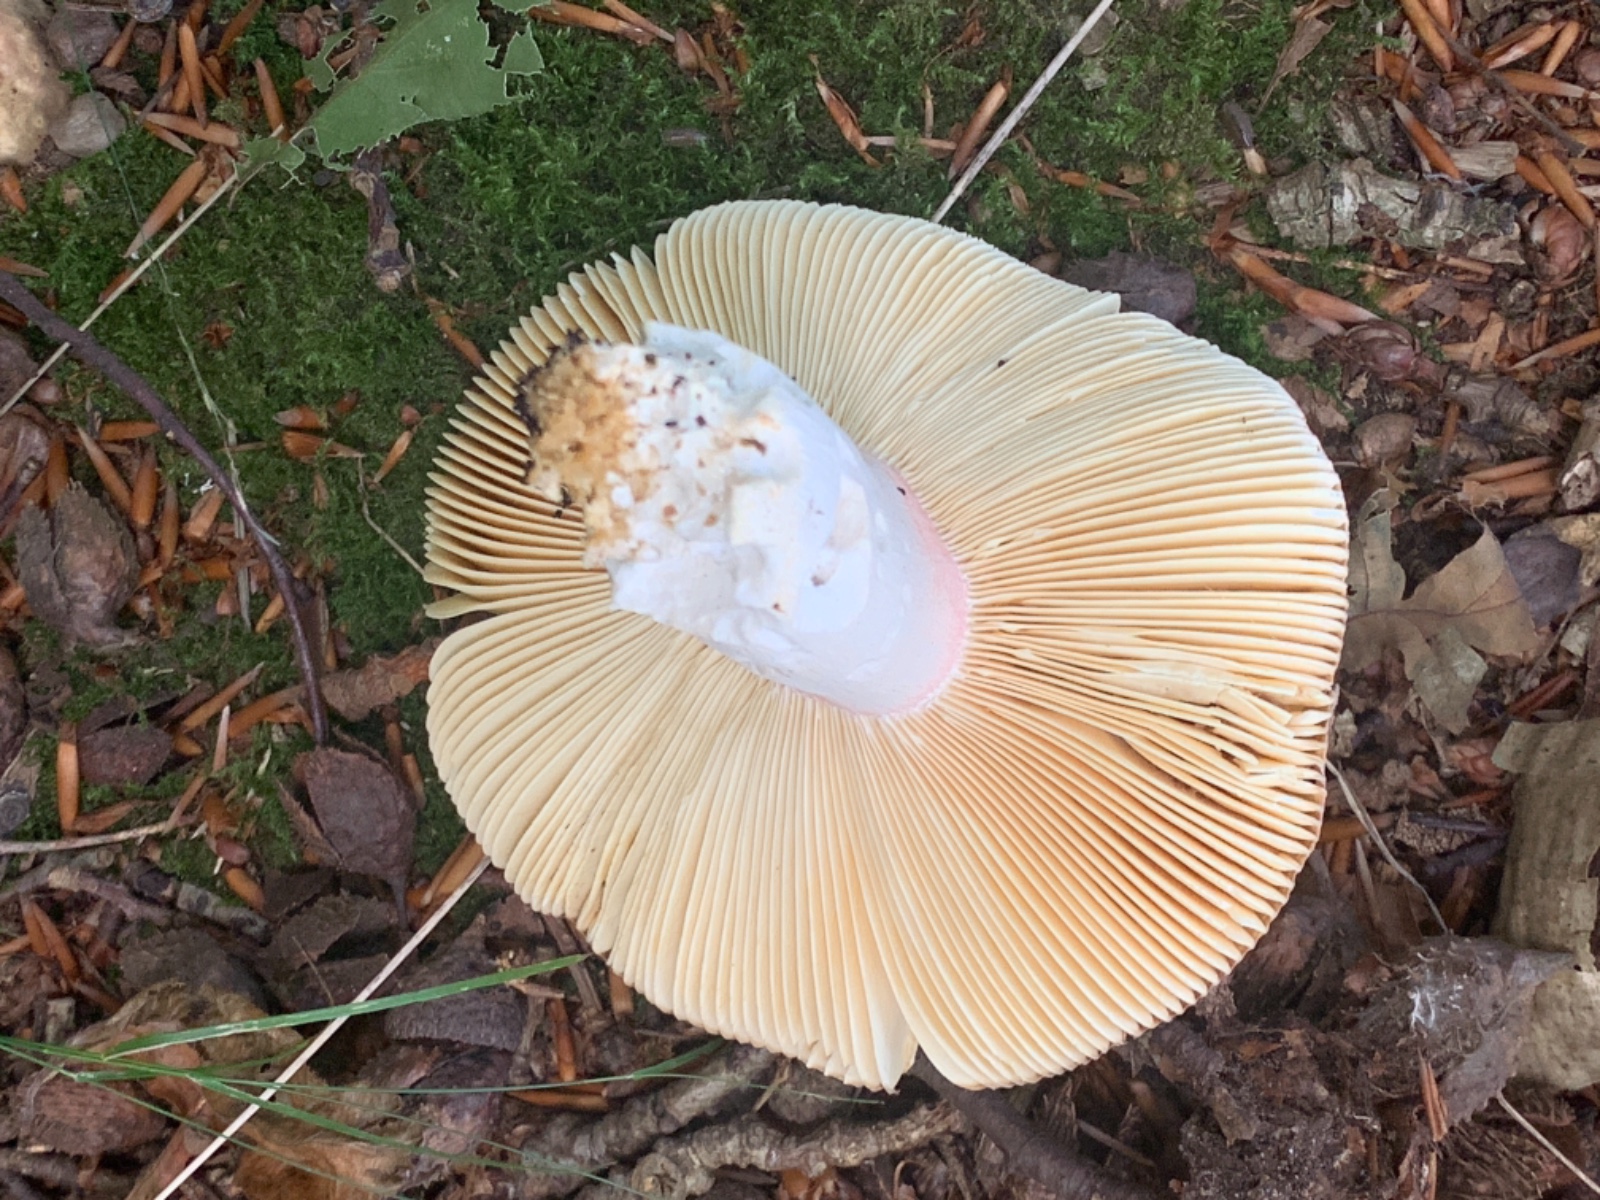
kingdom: Fungi
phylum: Basidiomycota
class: Agaricomycetes
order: Russulales
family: Russulaceae
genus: Russula
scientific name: Russula olivacea
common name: stor skørhat
